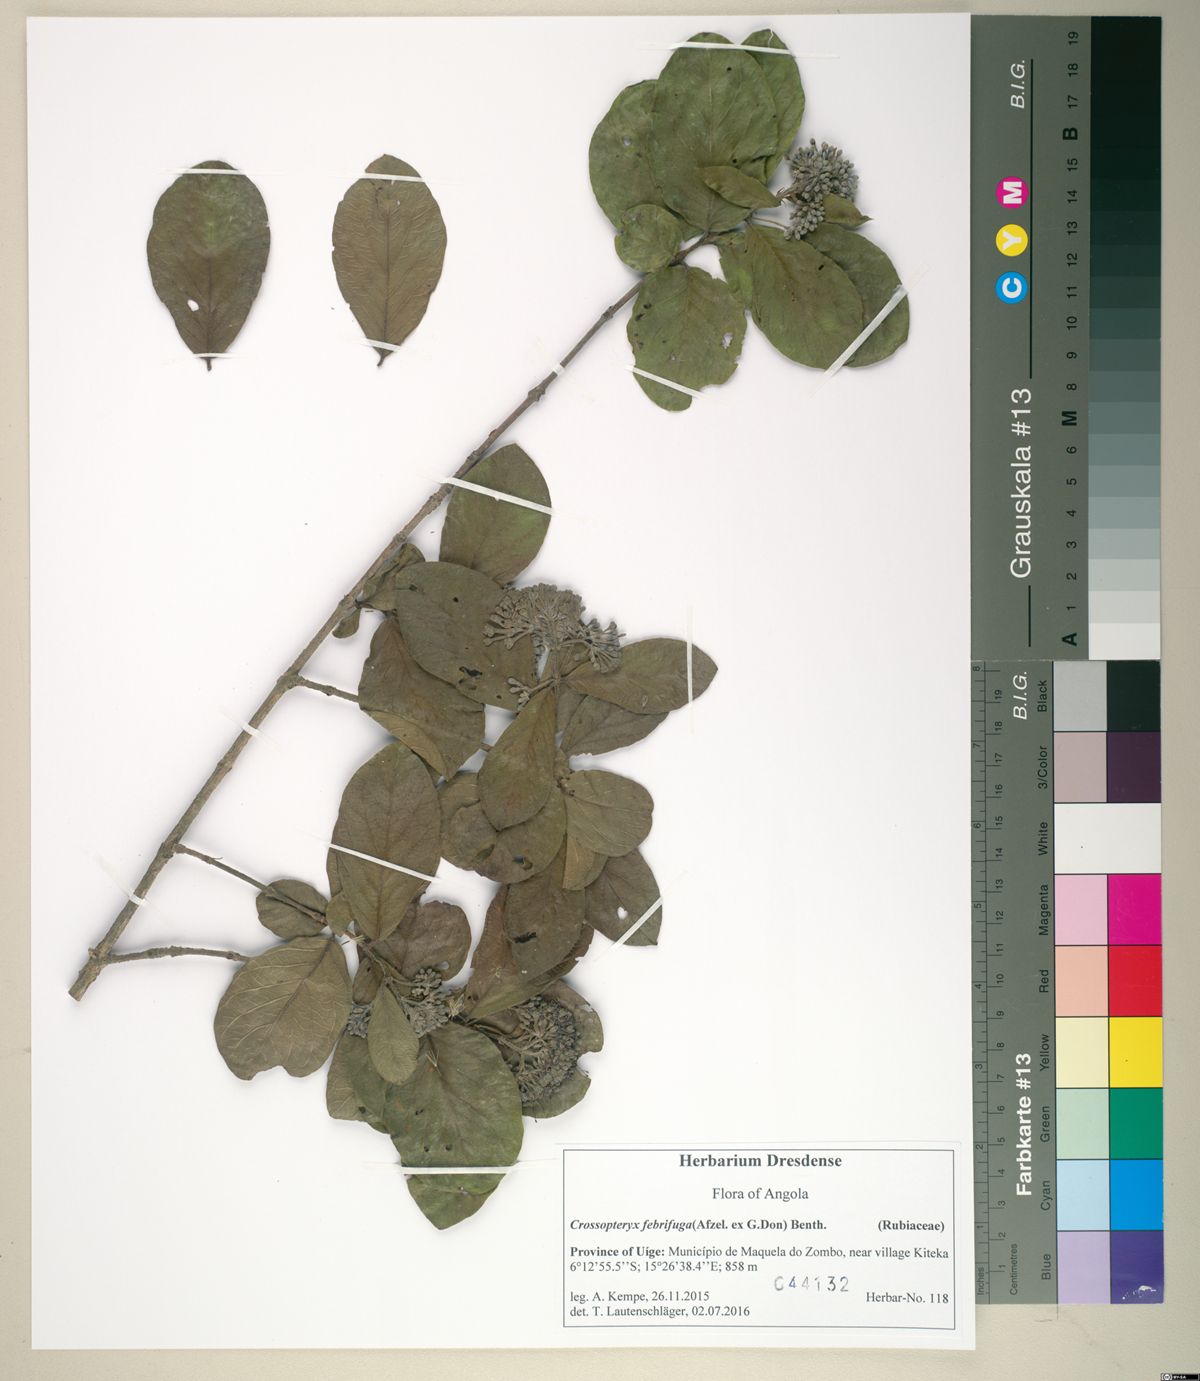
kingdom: Plantae
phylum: Tracheophyta
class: Magnoliopsida
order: Gentianales
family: Rubiaceae
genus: Crossopteryx
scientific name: Crossopteryx febrifuga
